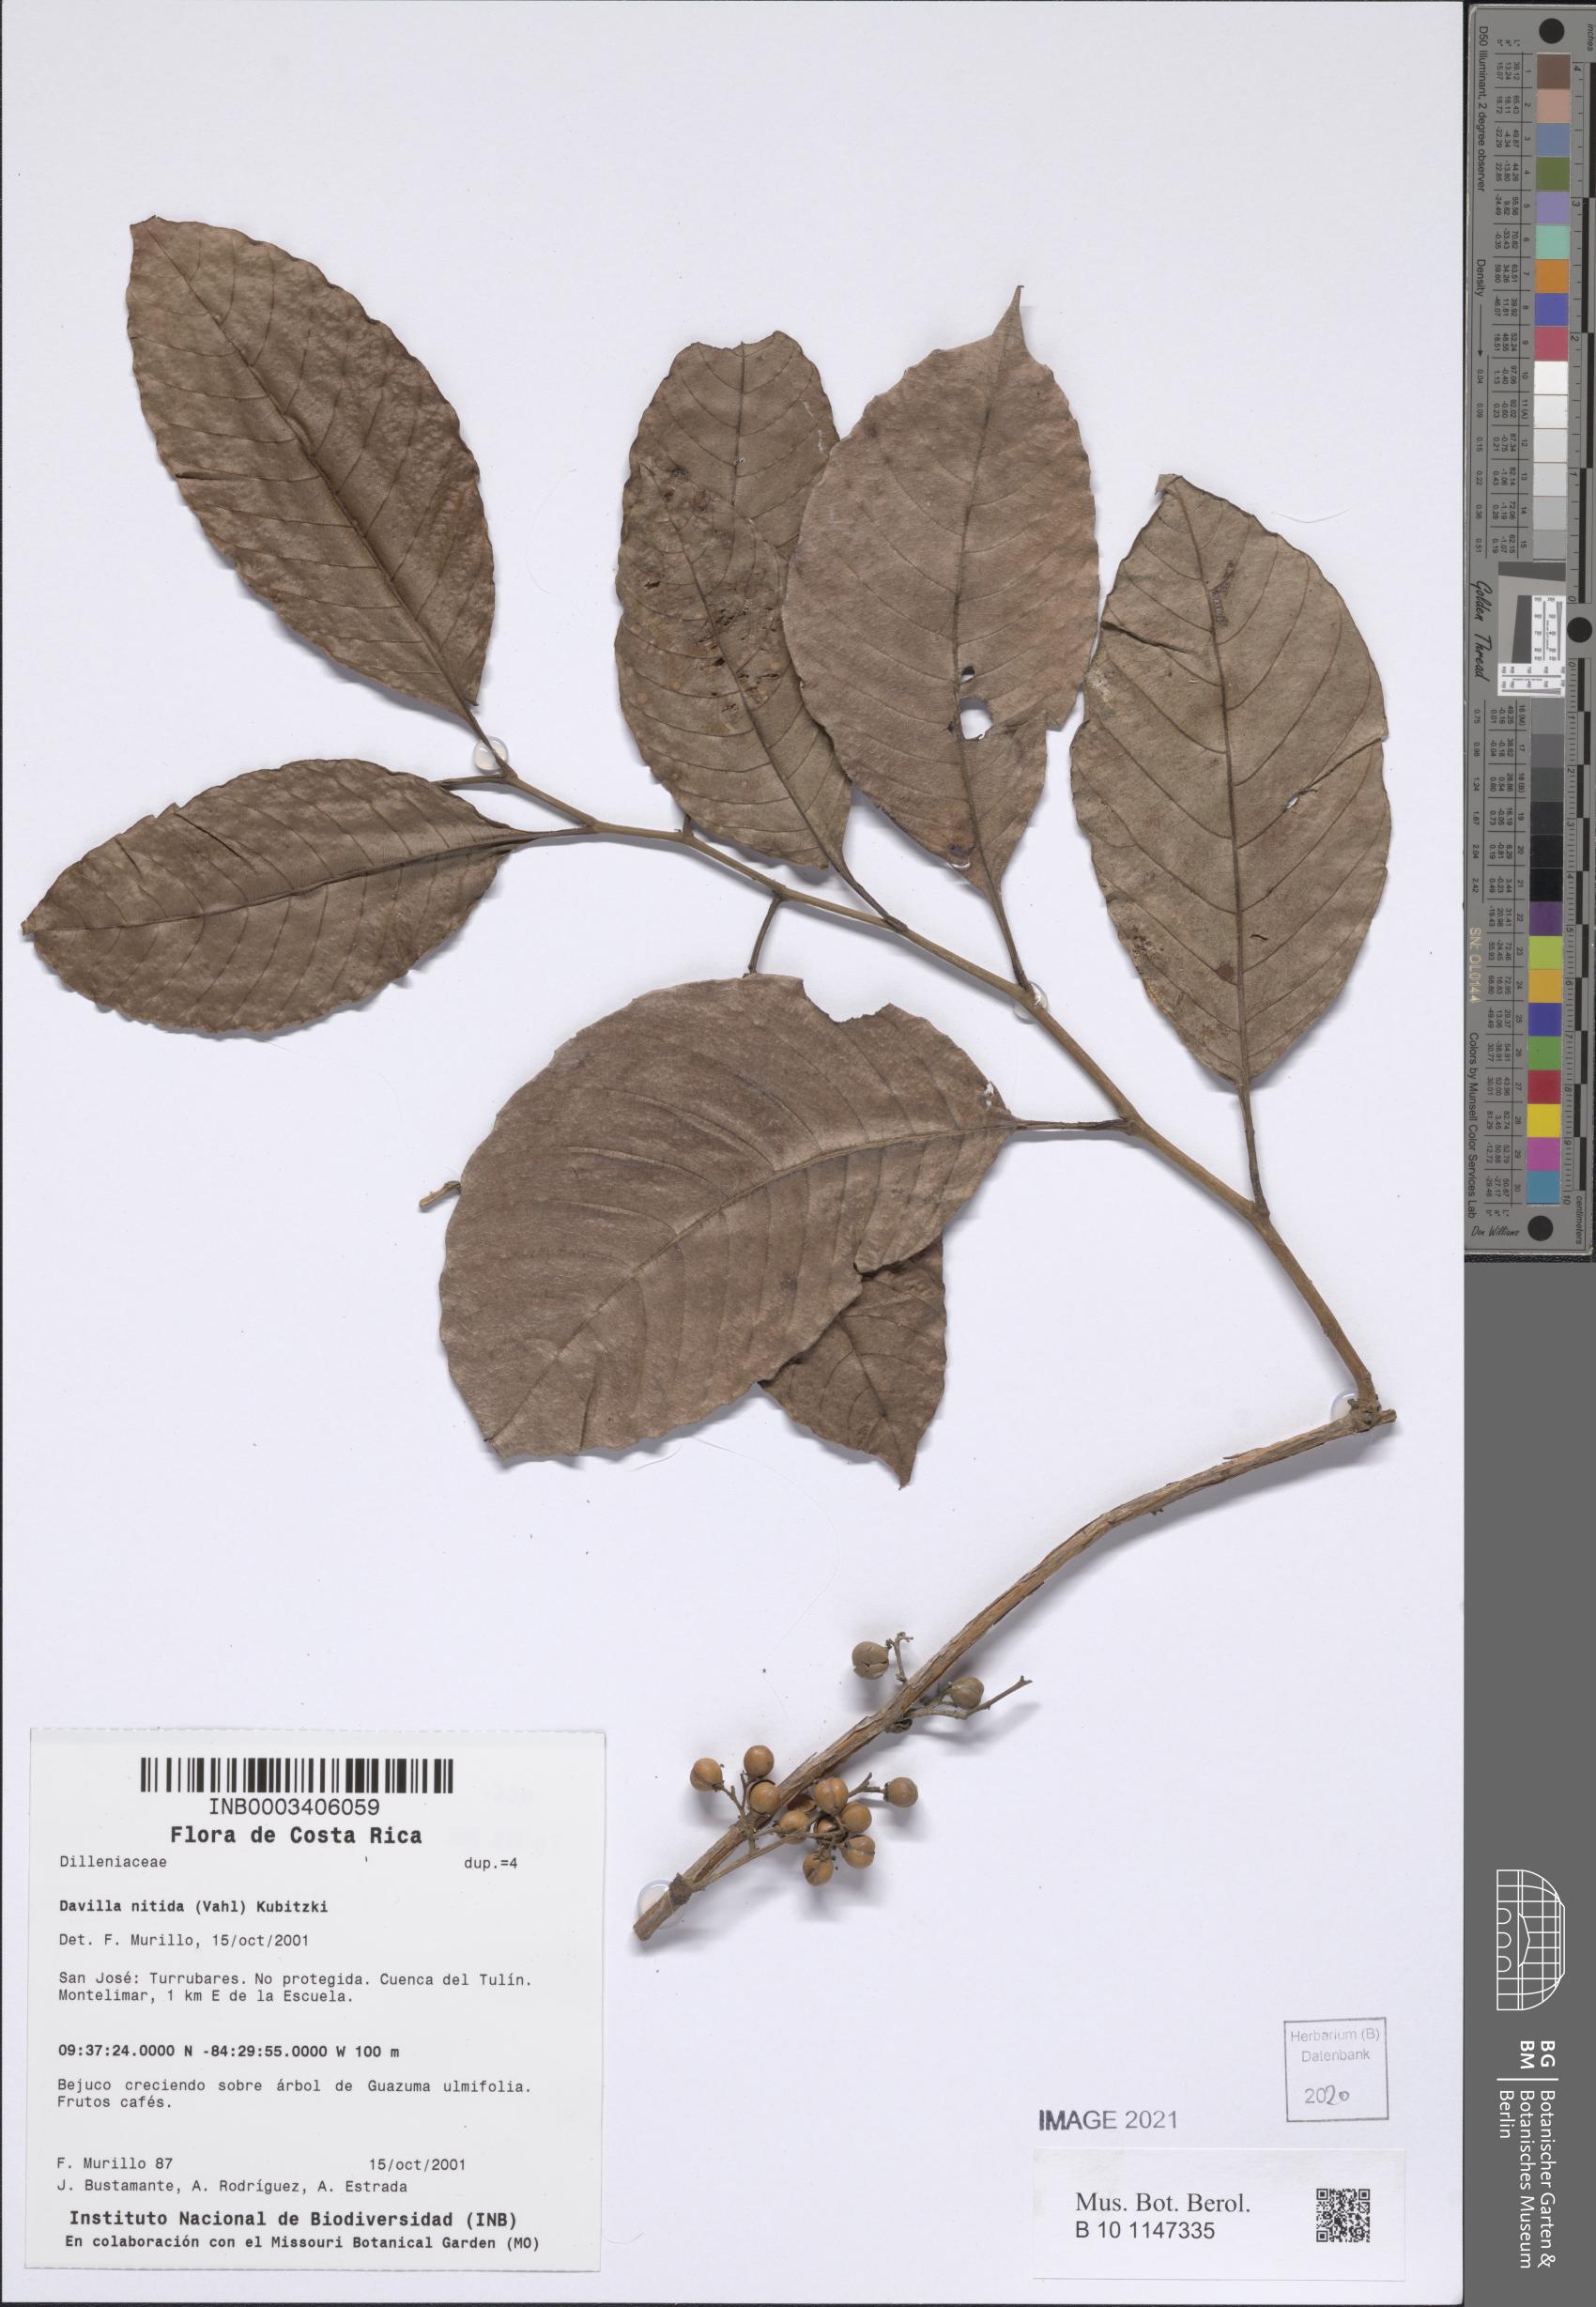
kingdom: Plantae
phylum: Tracheophyta
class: Magnoliopsida
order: Dilleniales
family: Dilleniaceae
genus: Davilla
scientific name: Davilla nitida
